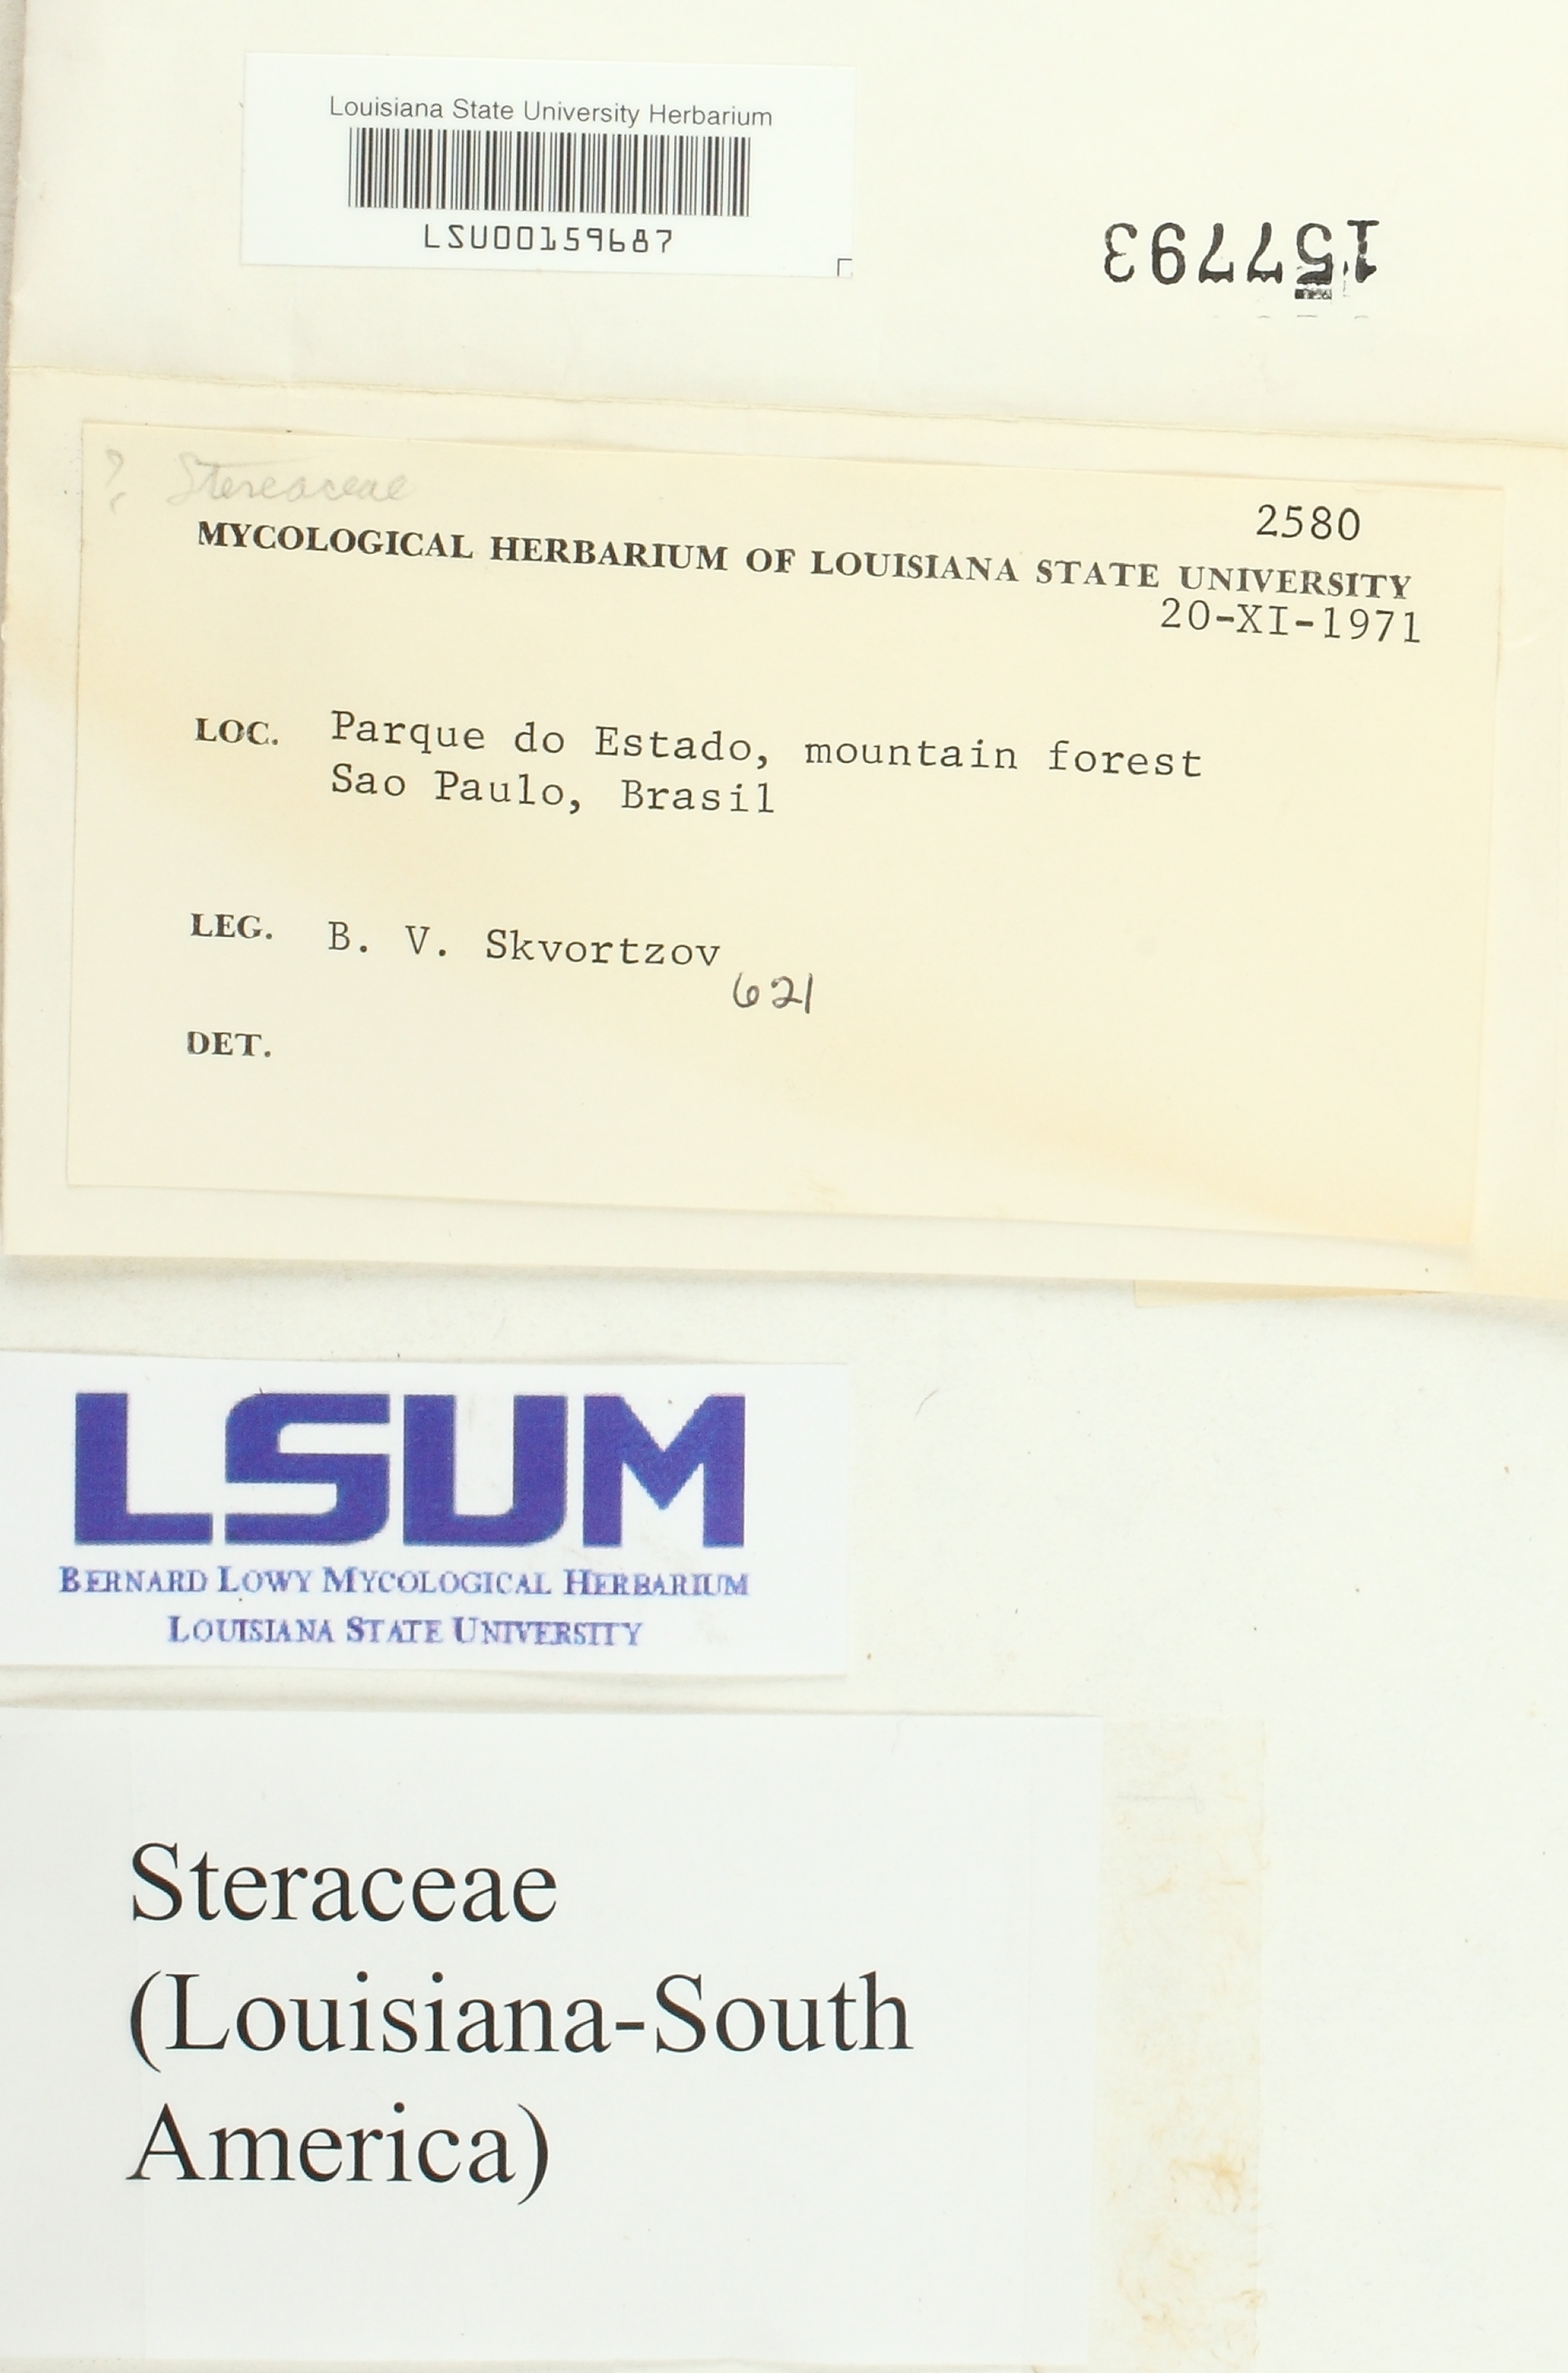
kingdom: Fungi
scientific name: Fungi
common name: Fungi
